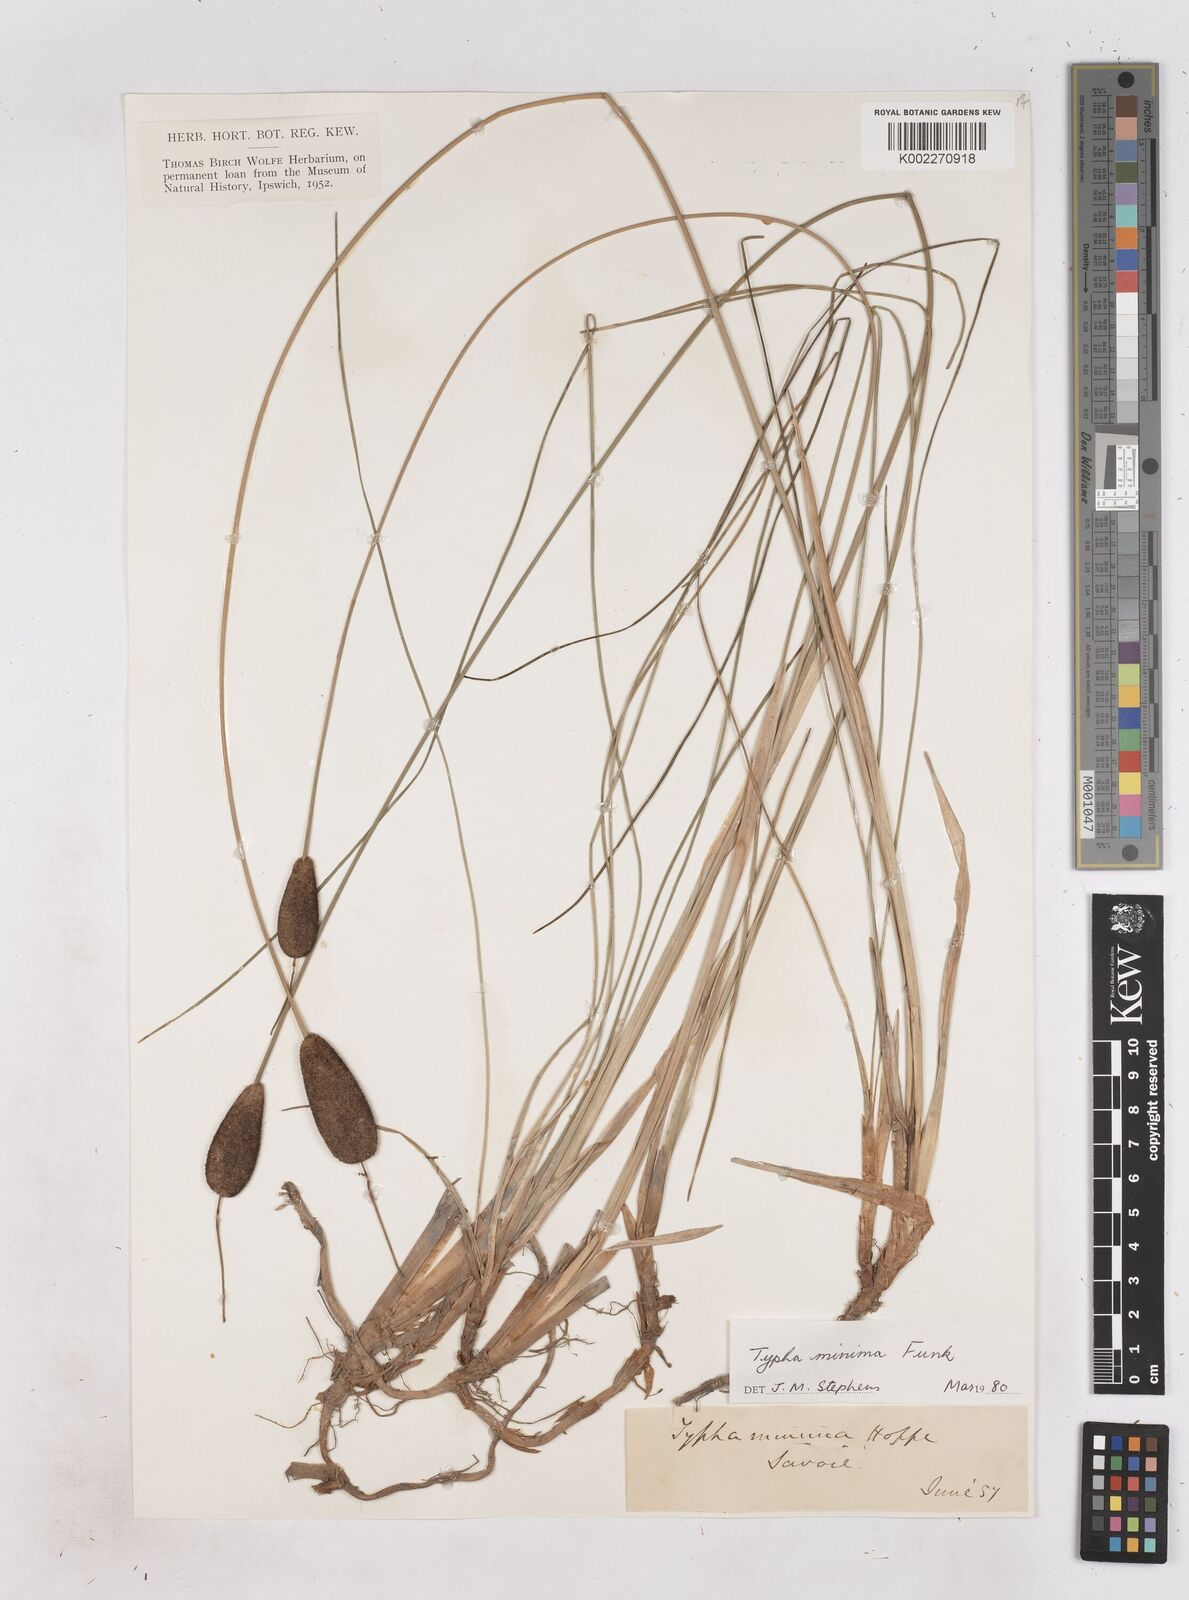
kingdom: Plantae
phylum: Tracheophyta
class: Liliopsida
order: Poales
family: Typhaceae
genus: Typha
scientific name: Typha
